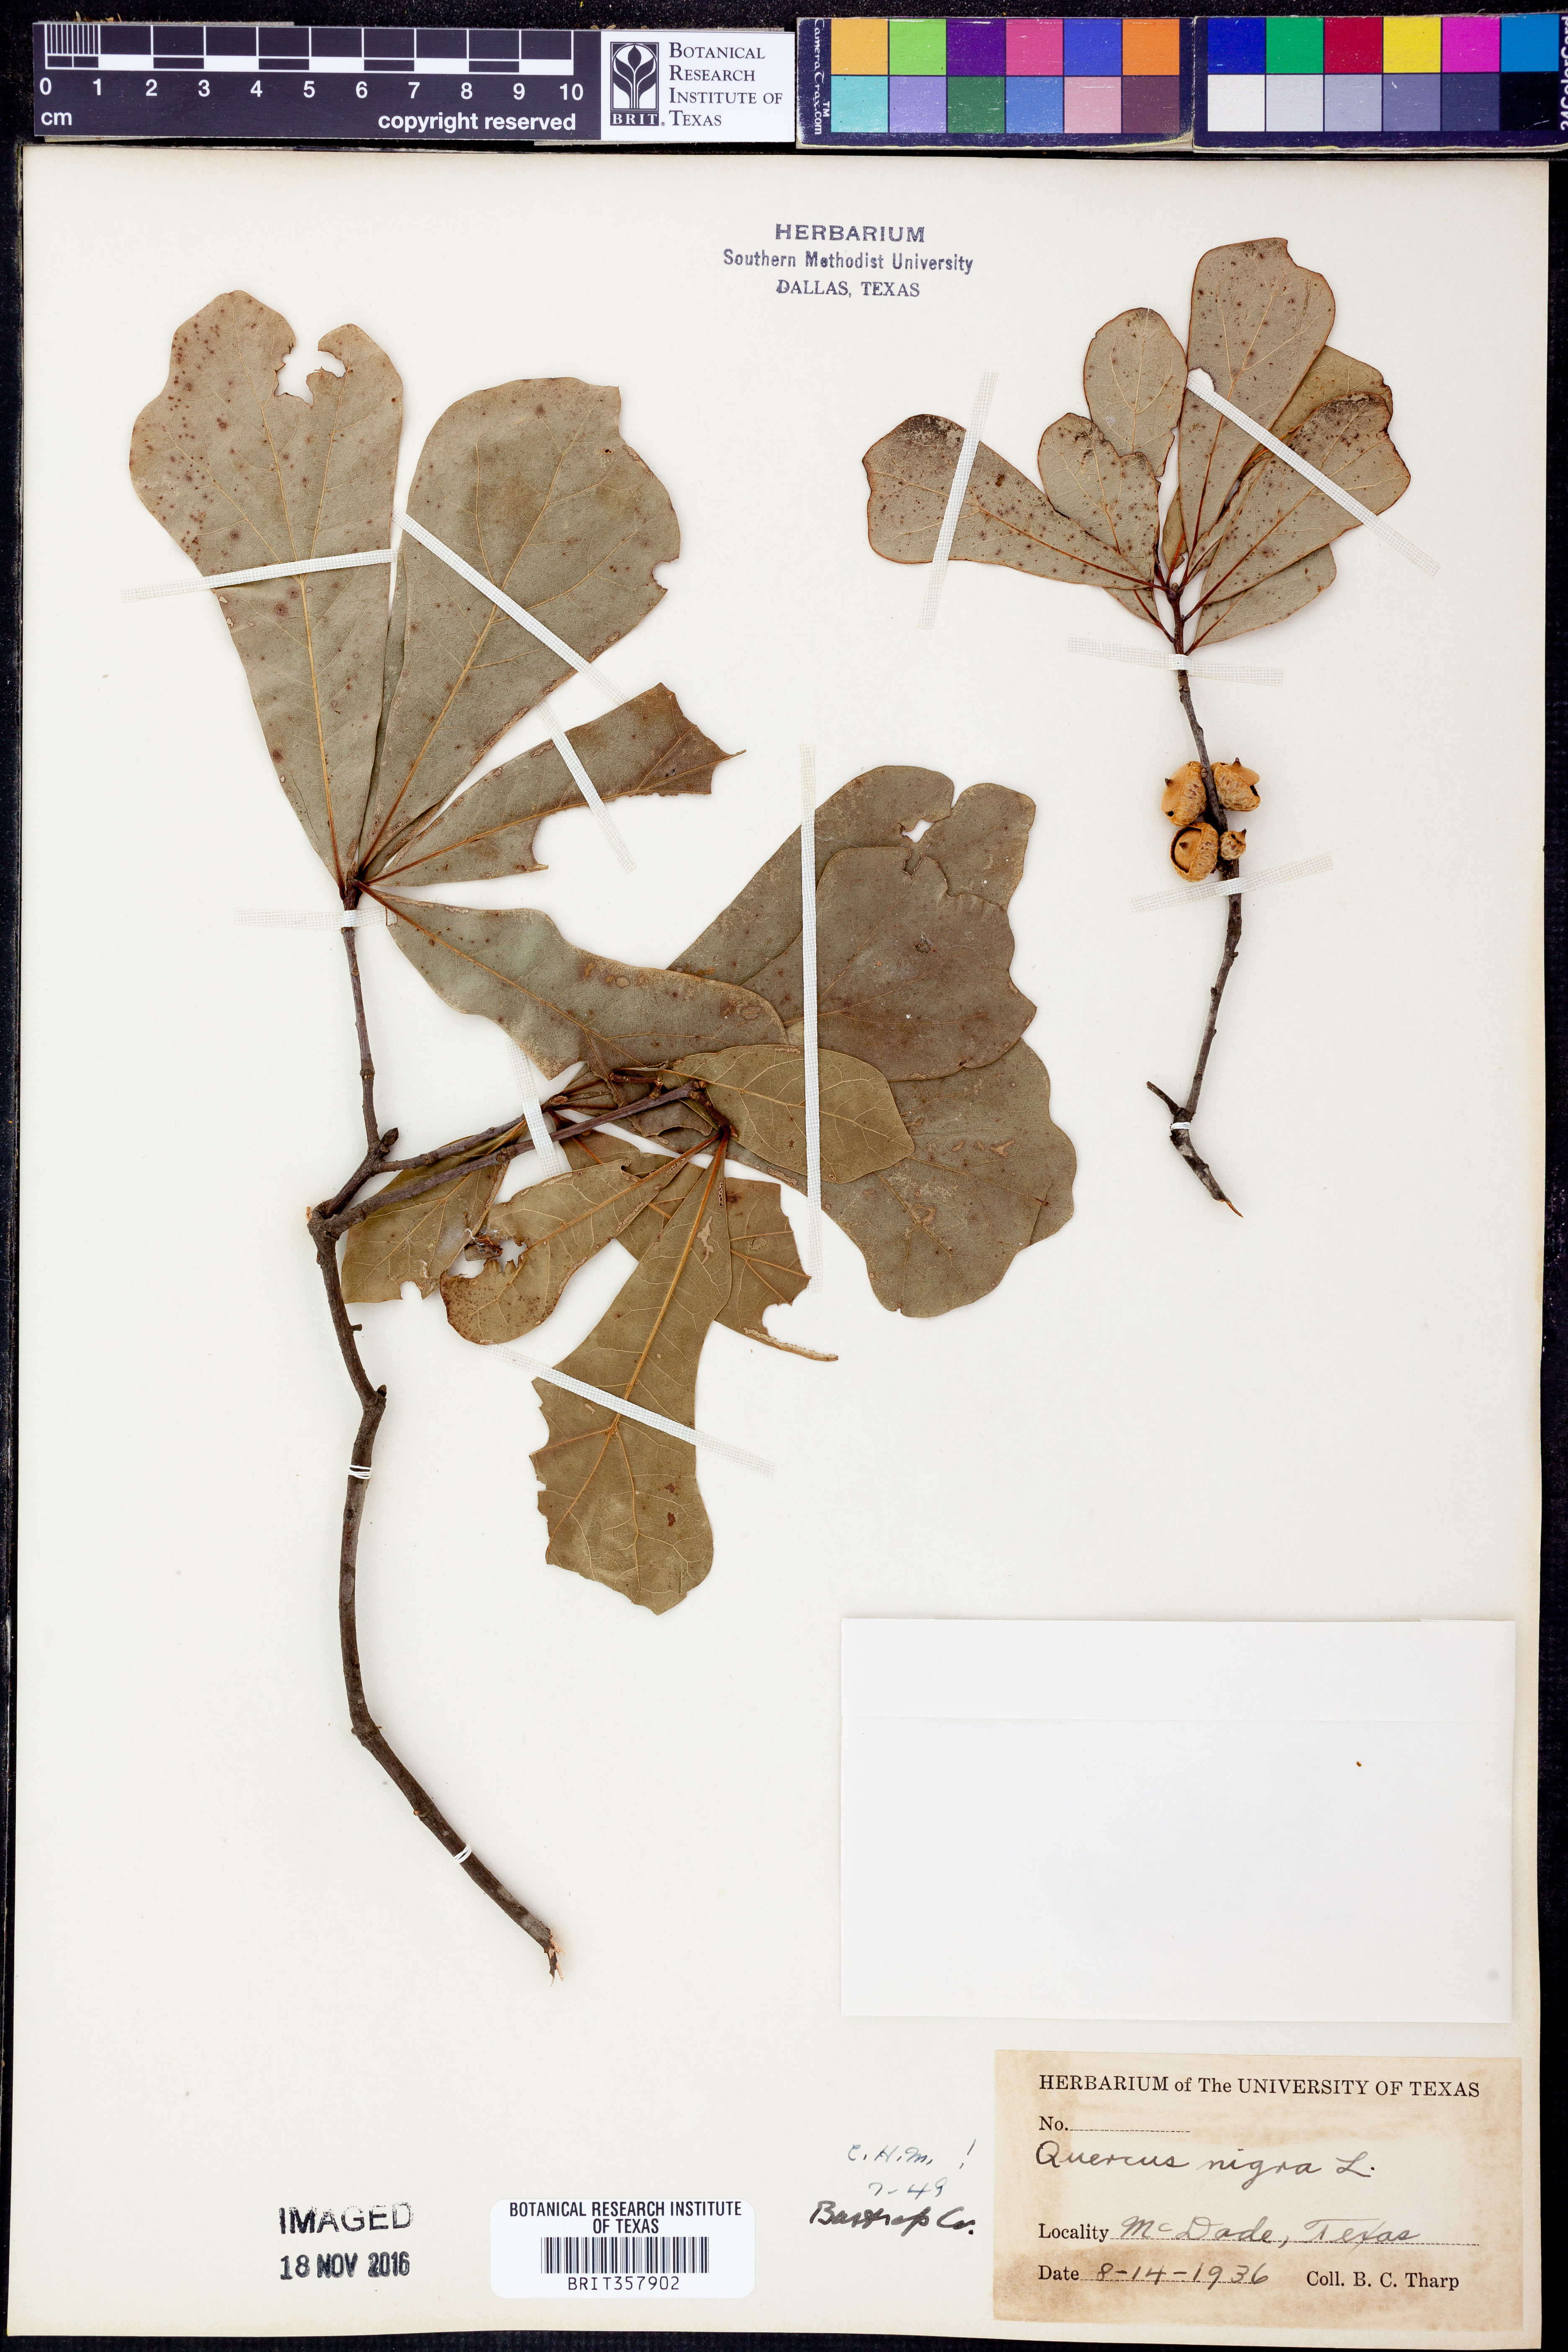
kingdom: Plantae
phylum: Tracheophyta
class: Magnoliopsida
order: Fagales
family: Fagaceae
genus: Quercus
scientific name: Quercus nigra
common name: Water oak
